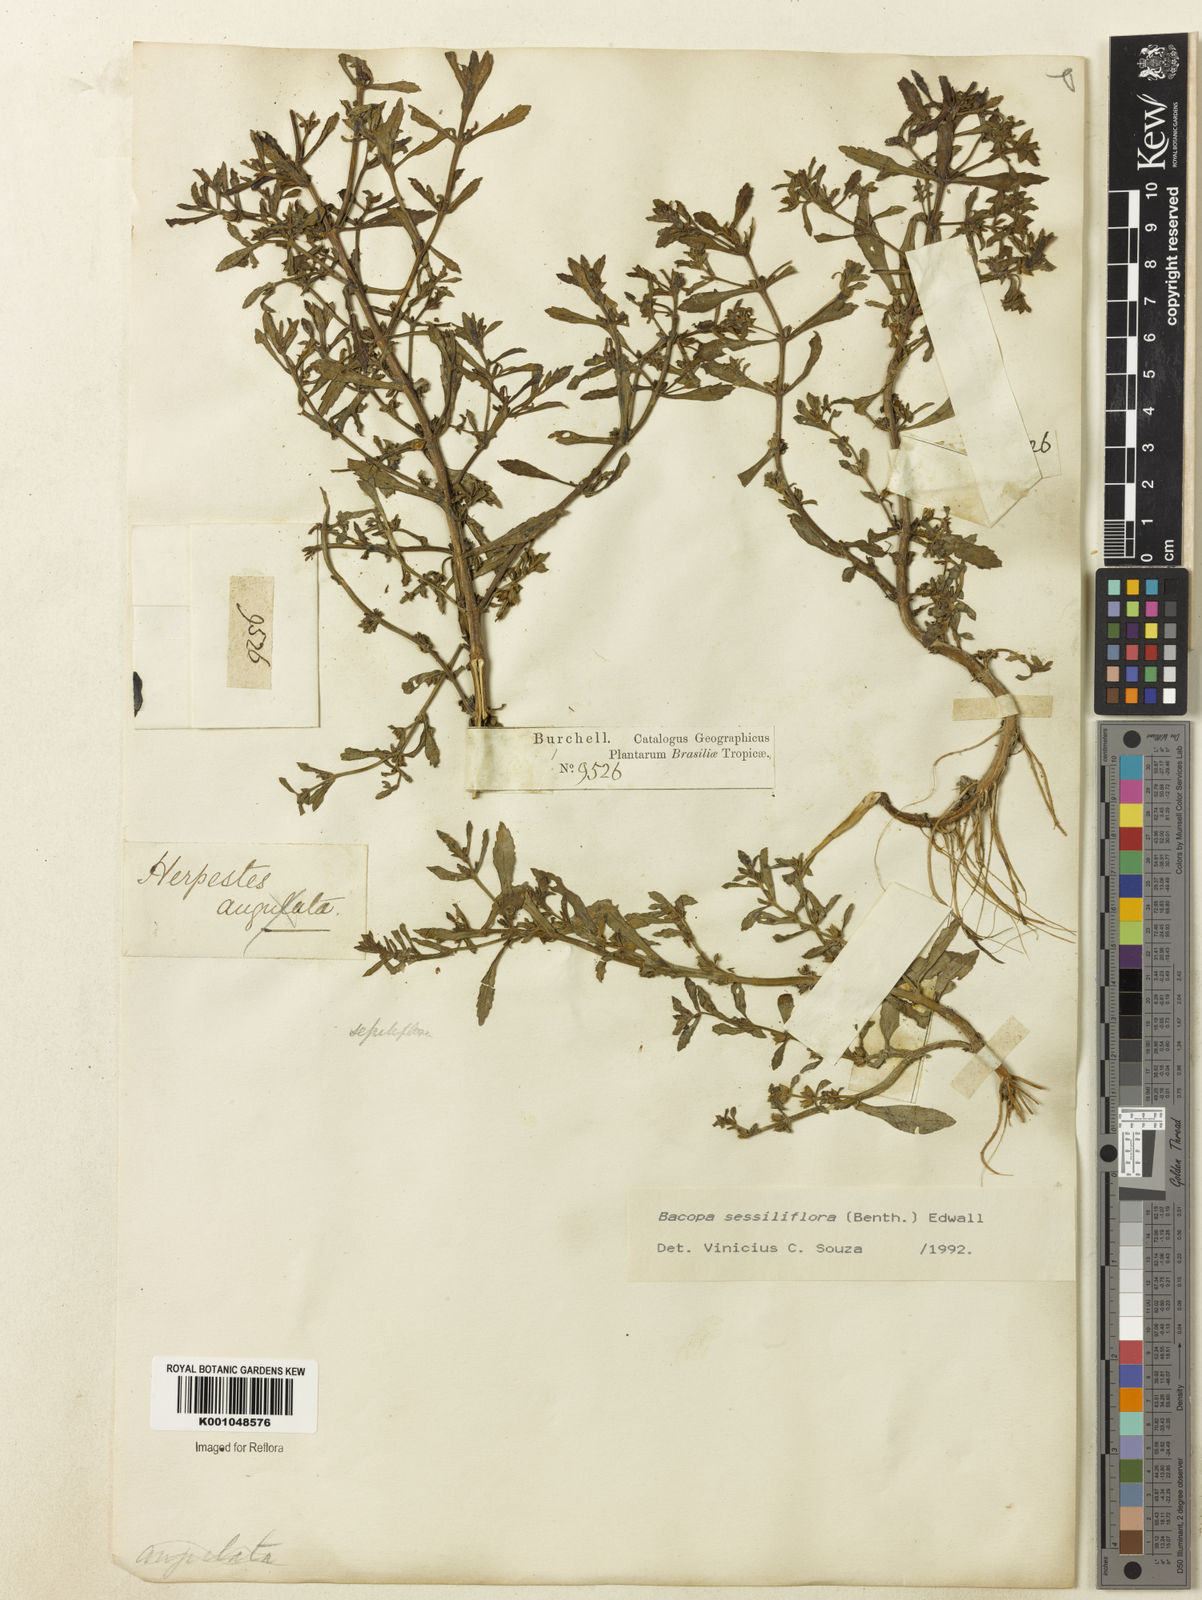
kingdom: Plantae
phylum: Tracheophyta
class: Magnoliopsida
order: Lamiales
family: Plantaginaceae
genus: Bacopa
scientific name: Bacopa sessiliflora
